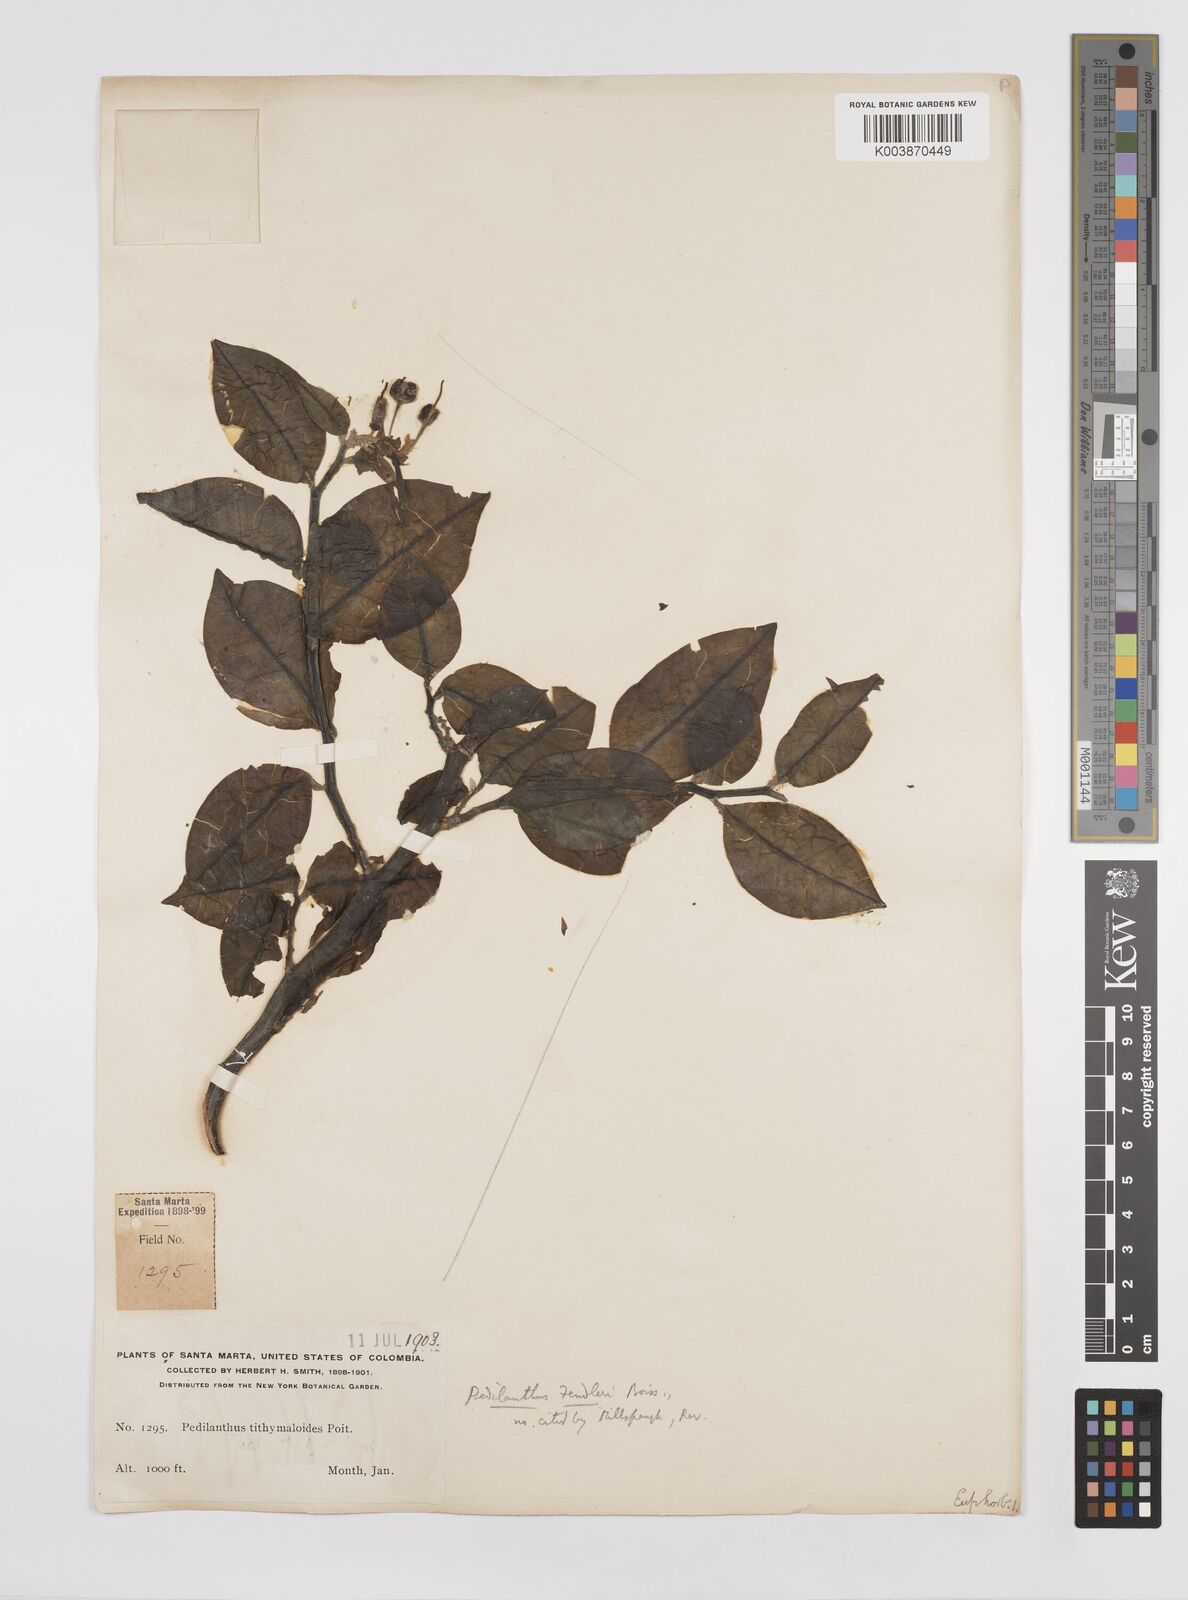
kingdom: Plantae
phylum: Tracheophyta
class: Magnoliopsida
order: Malpighiales
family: Euphorbiaceae
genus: Euphorbia
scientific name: Euphorbia tithymaloides
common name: Slipperplant
